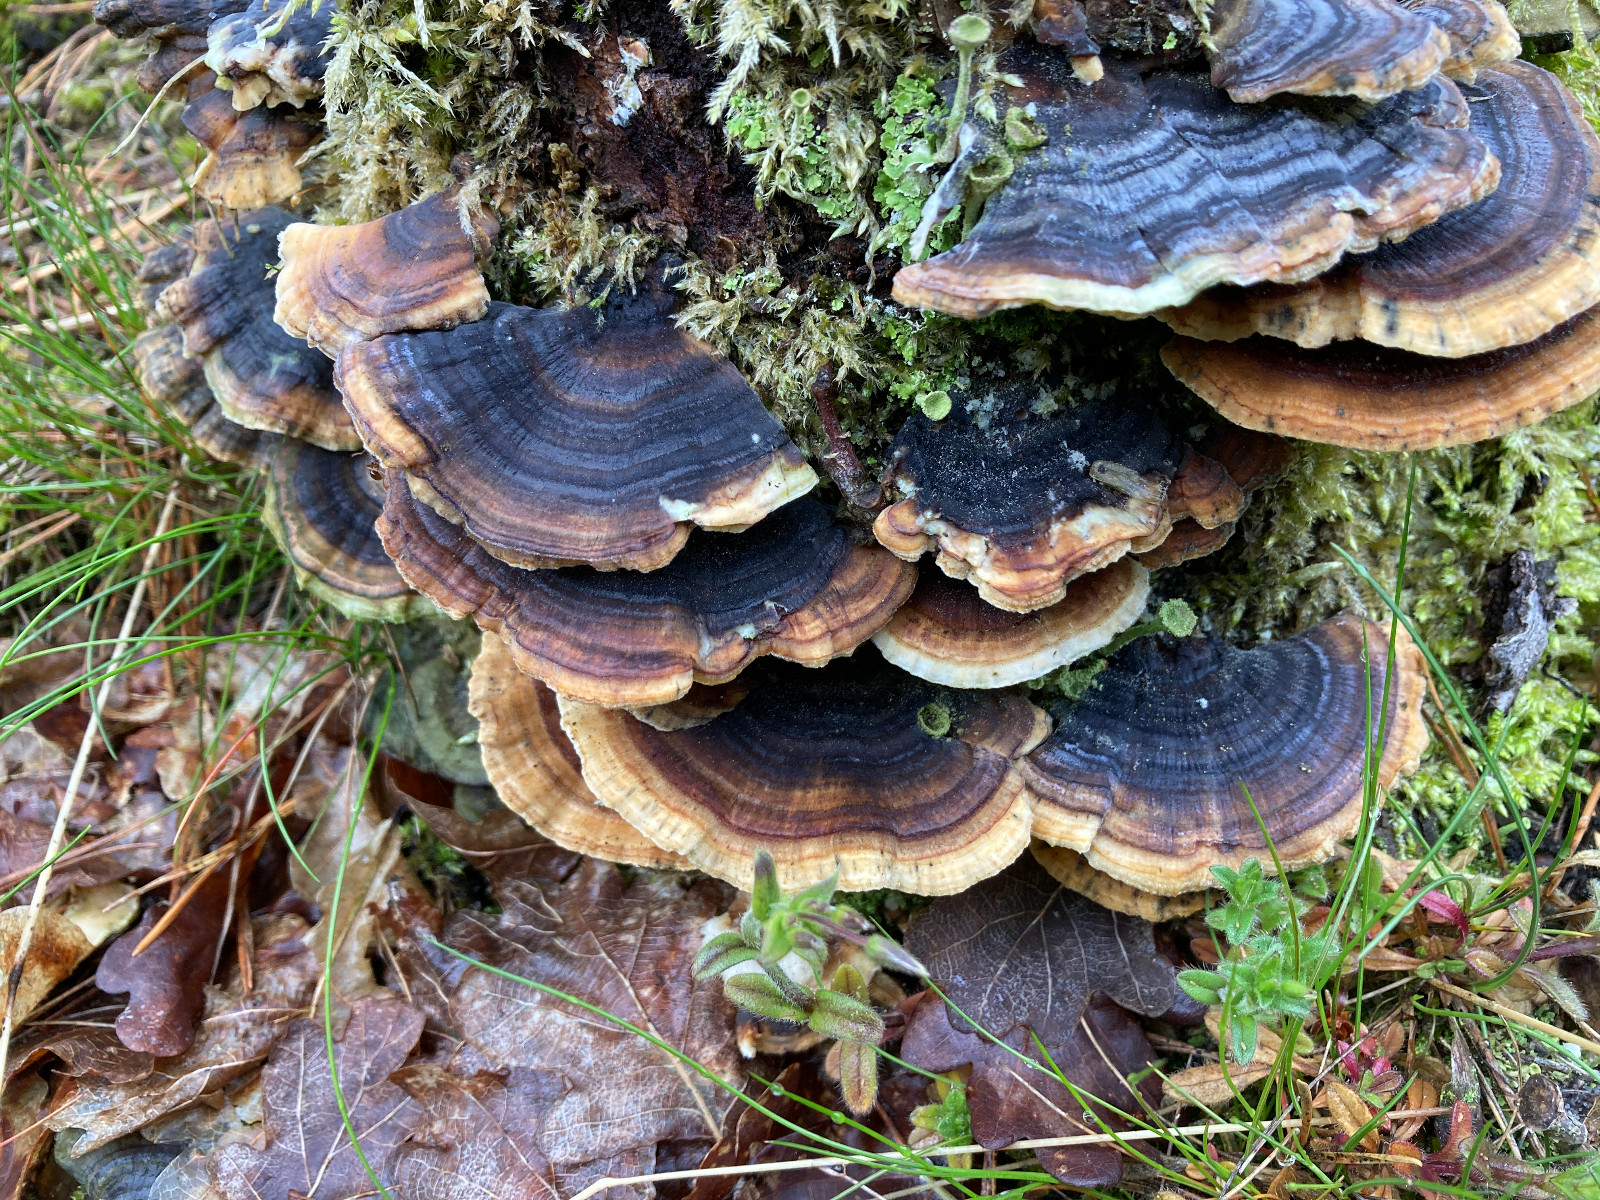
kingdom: Fungi
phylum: Basidiomycota
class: Agaricomycetes
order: Polyporales
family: Polyporaceae
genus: Trametes
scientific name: Trametes versicolor
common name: broget læderporesvamp
